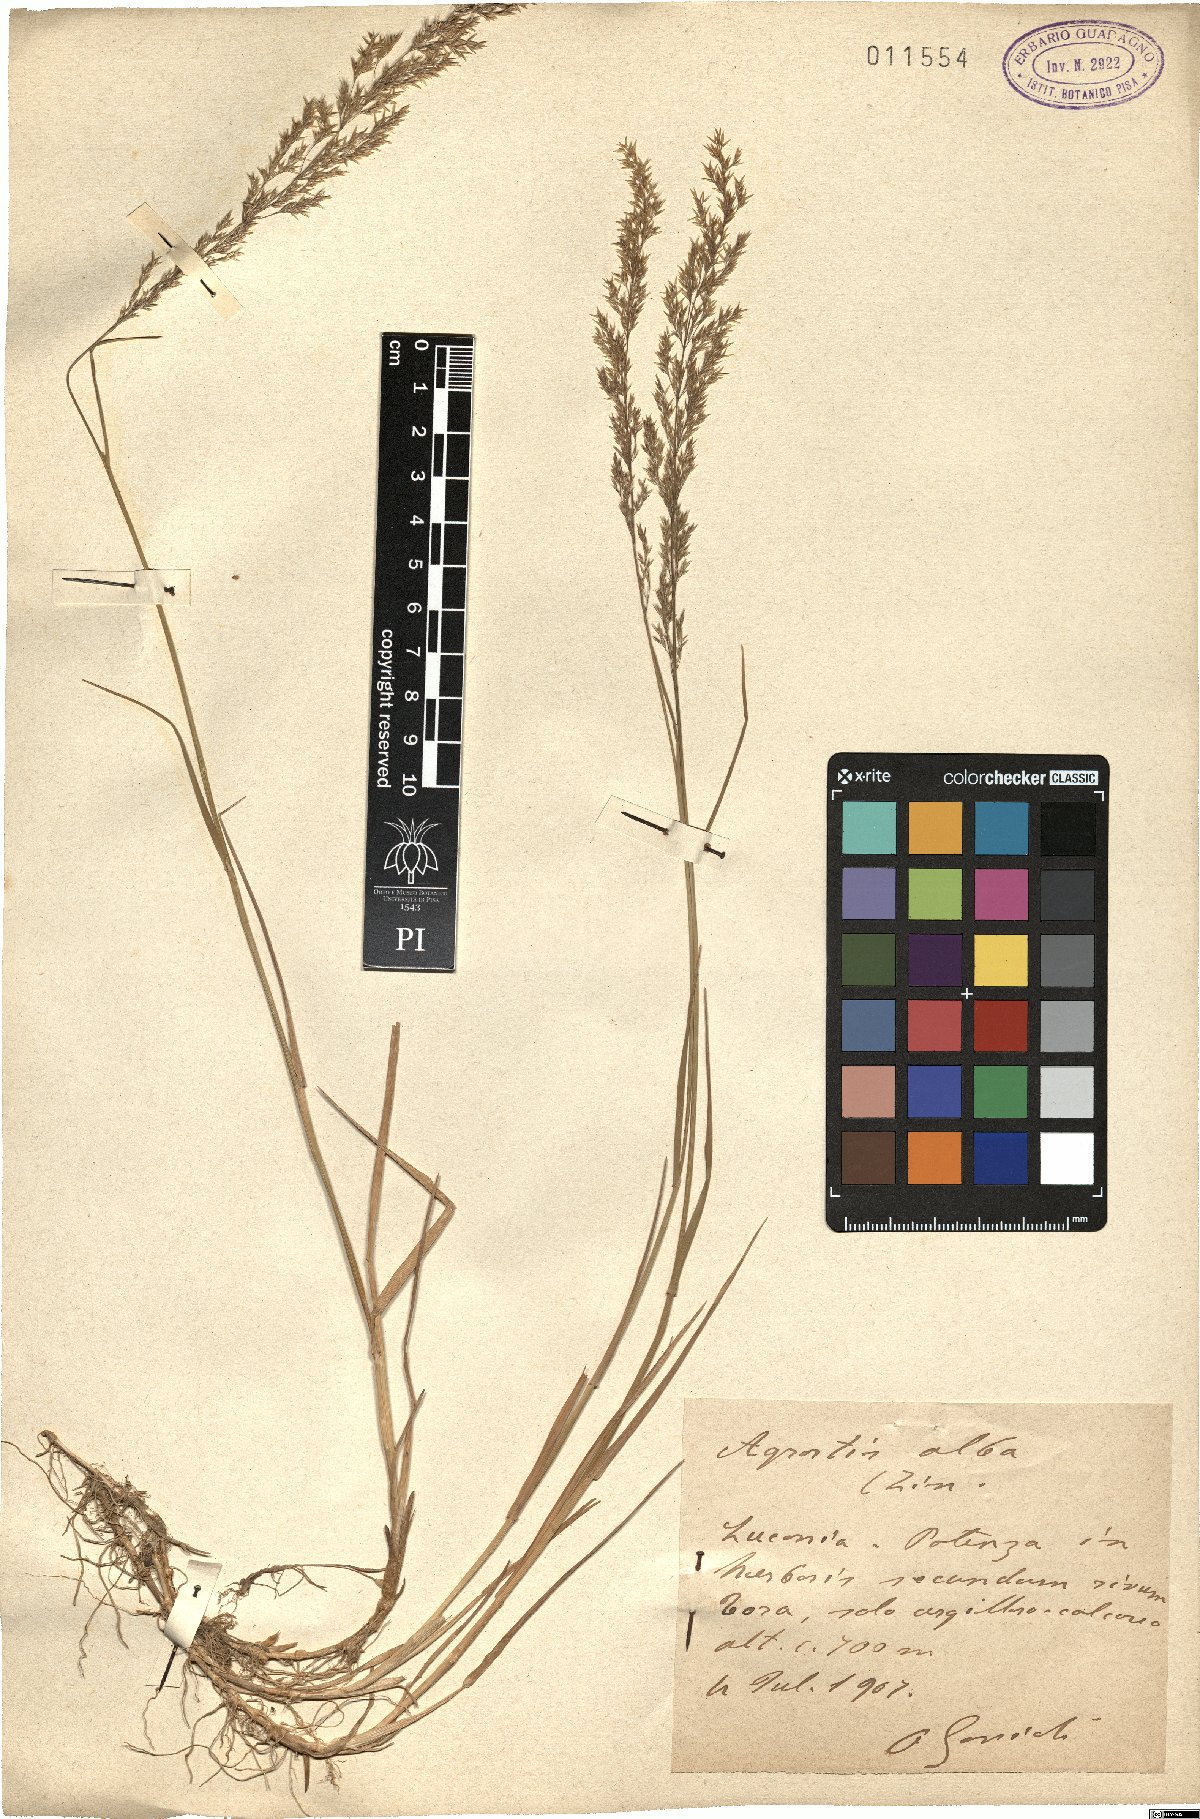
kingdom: Plantae
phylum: Tracheophyta
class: Liliopsida
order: Poales
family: Poaceae
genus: Poa
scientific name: Poa nemoralis
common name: Wood bluegrass
